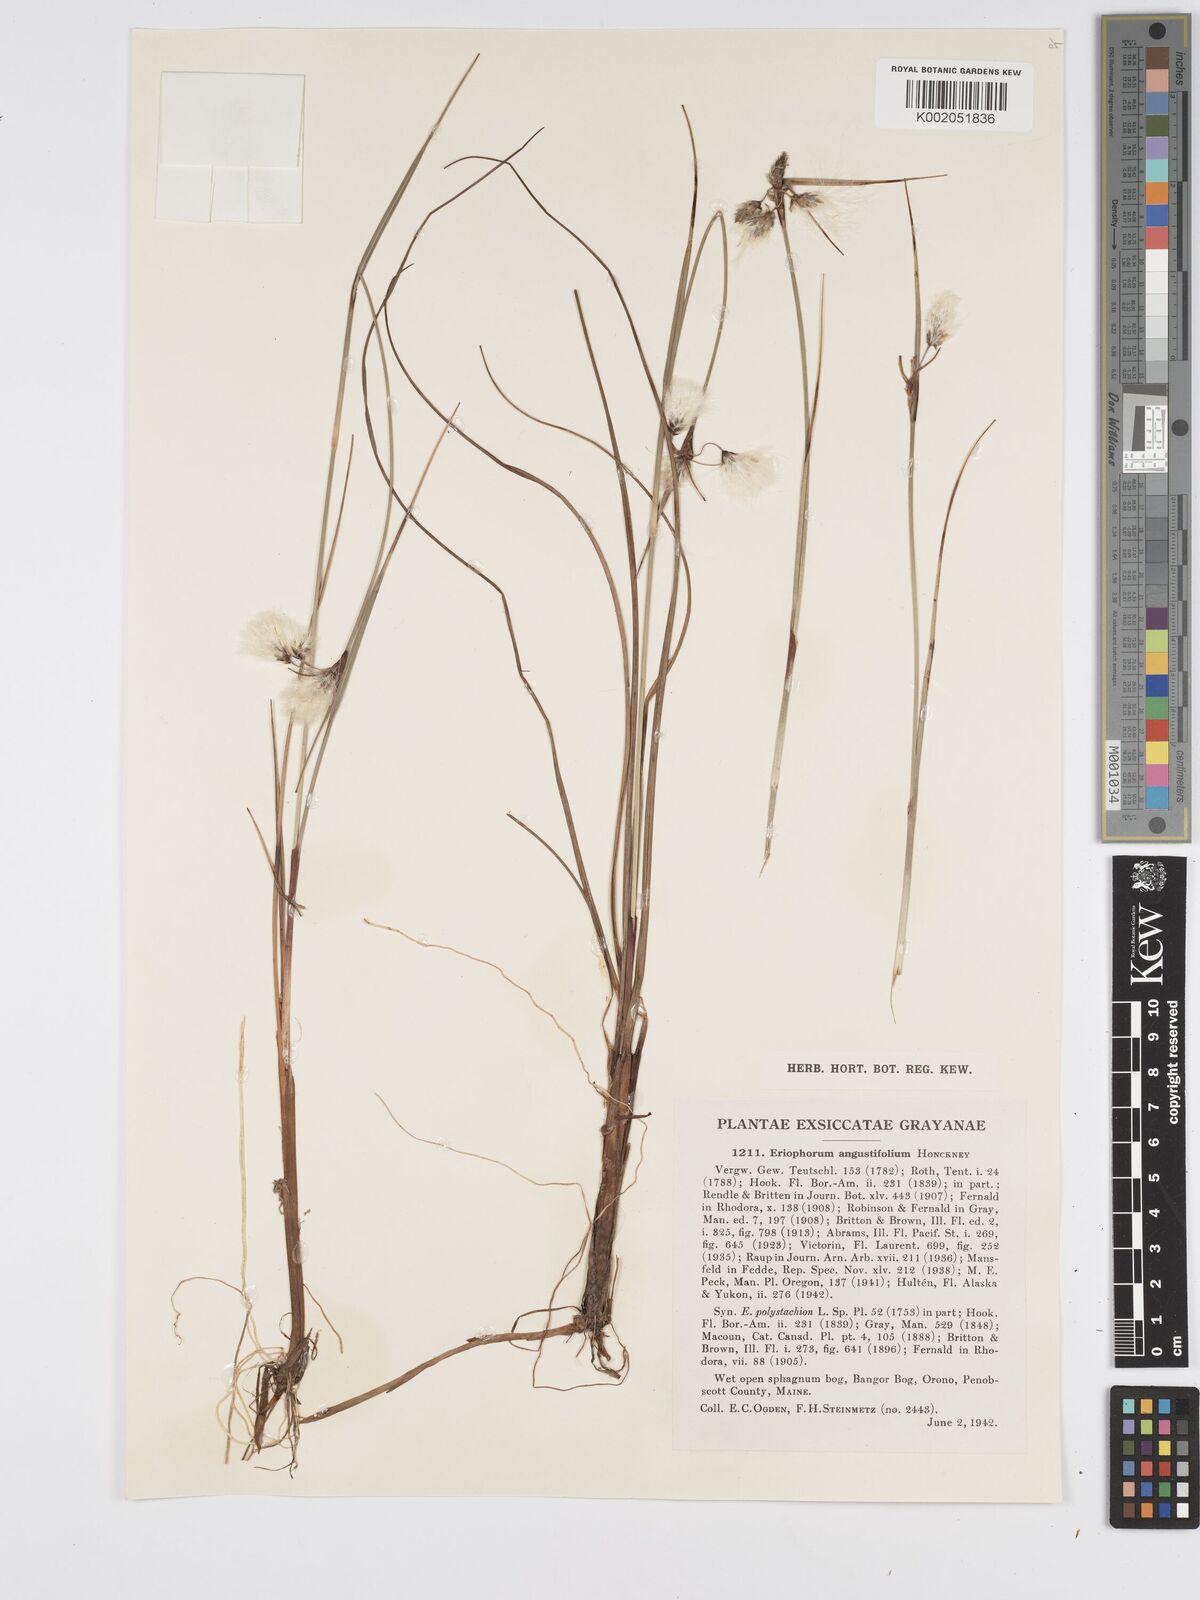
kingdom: Plantae
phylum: Tracheophyta
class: Liliopsida
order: Poales
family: Cyperaceae
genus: Eriophorum
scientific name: Eriophorum angustifolium
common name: Common cottongrass
